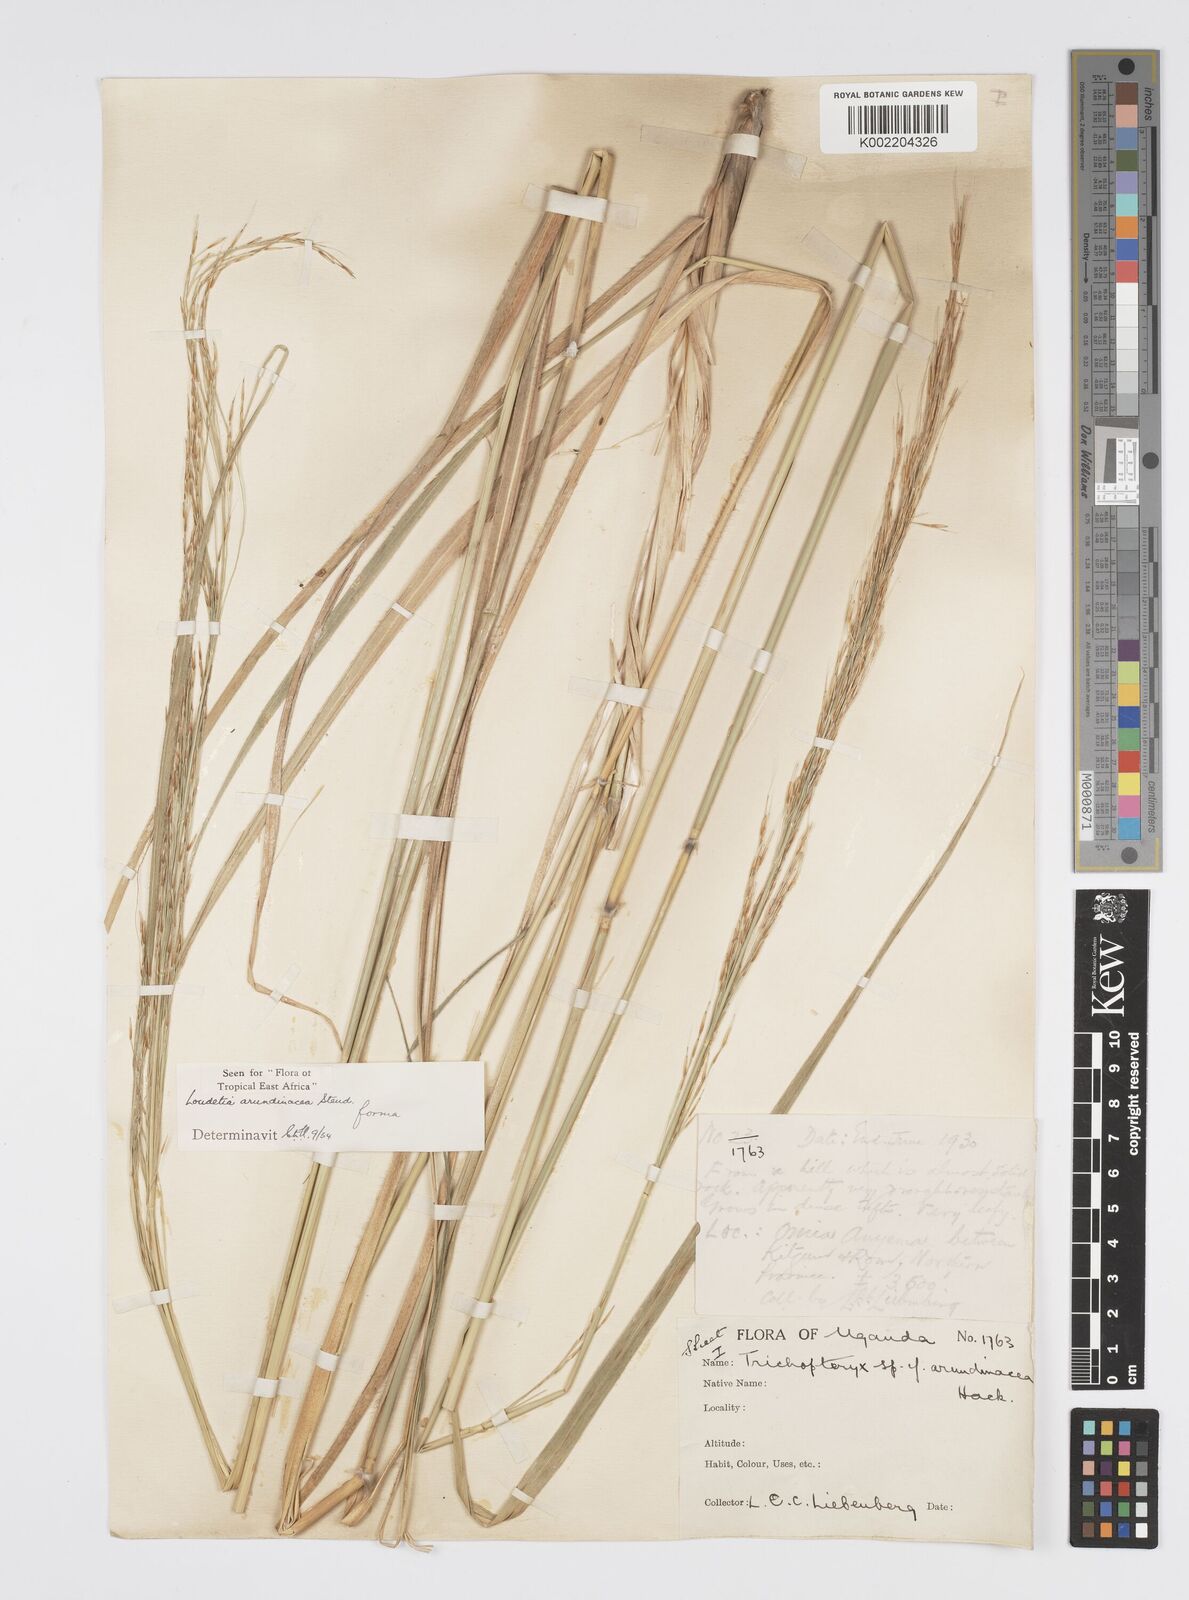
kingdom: Plantae
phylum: Tracheophyta
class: Liliopsida
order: Poales
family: Poaceae
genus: Loudetia
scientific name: Loudetia arundinacea
